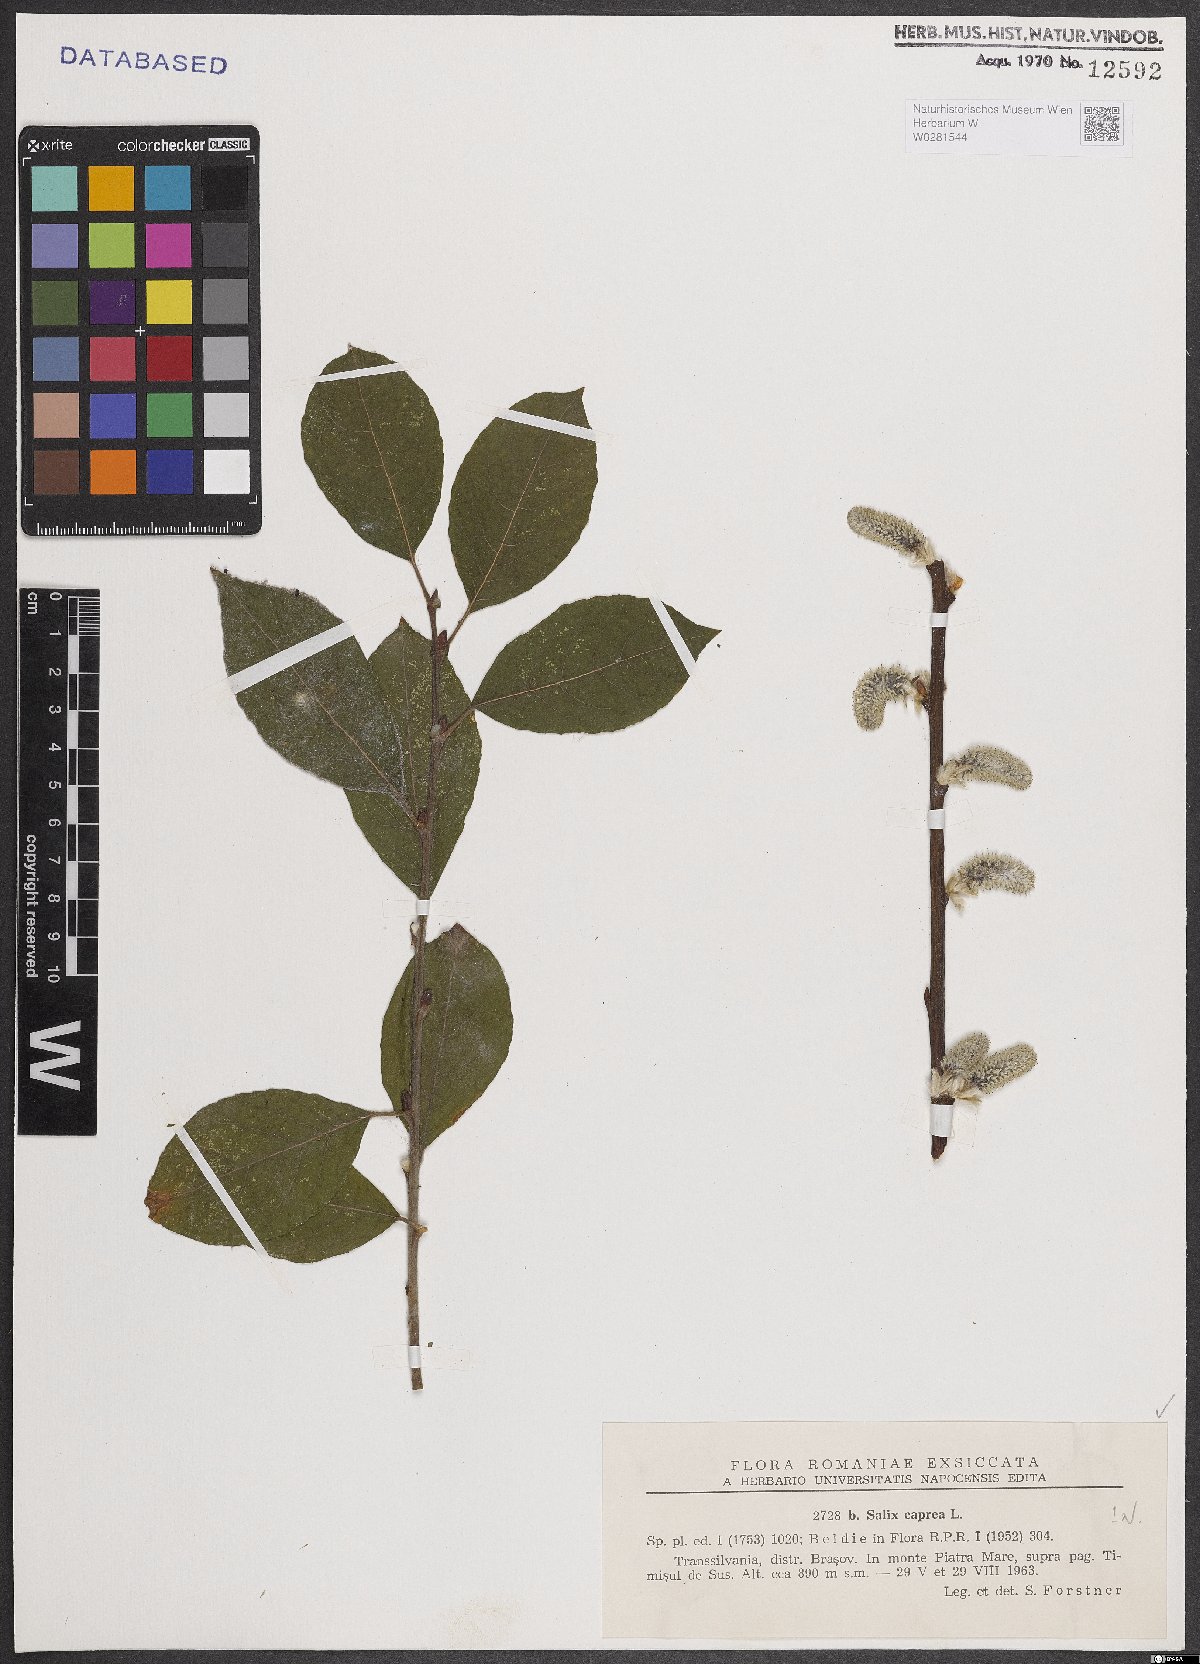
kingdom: Plantae
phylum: Tracheophyta
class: Magnoliopsida
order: Malpighiales
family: Salicaceae
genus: Salix
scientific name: Salix caprea
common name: Goat willow
